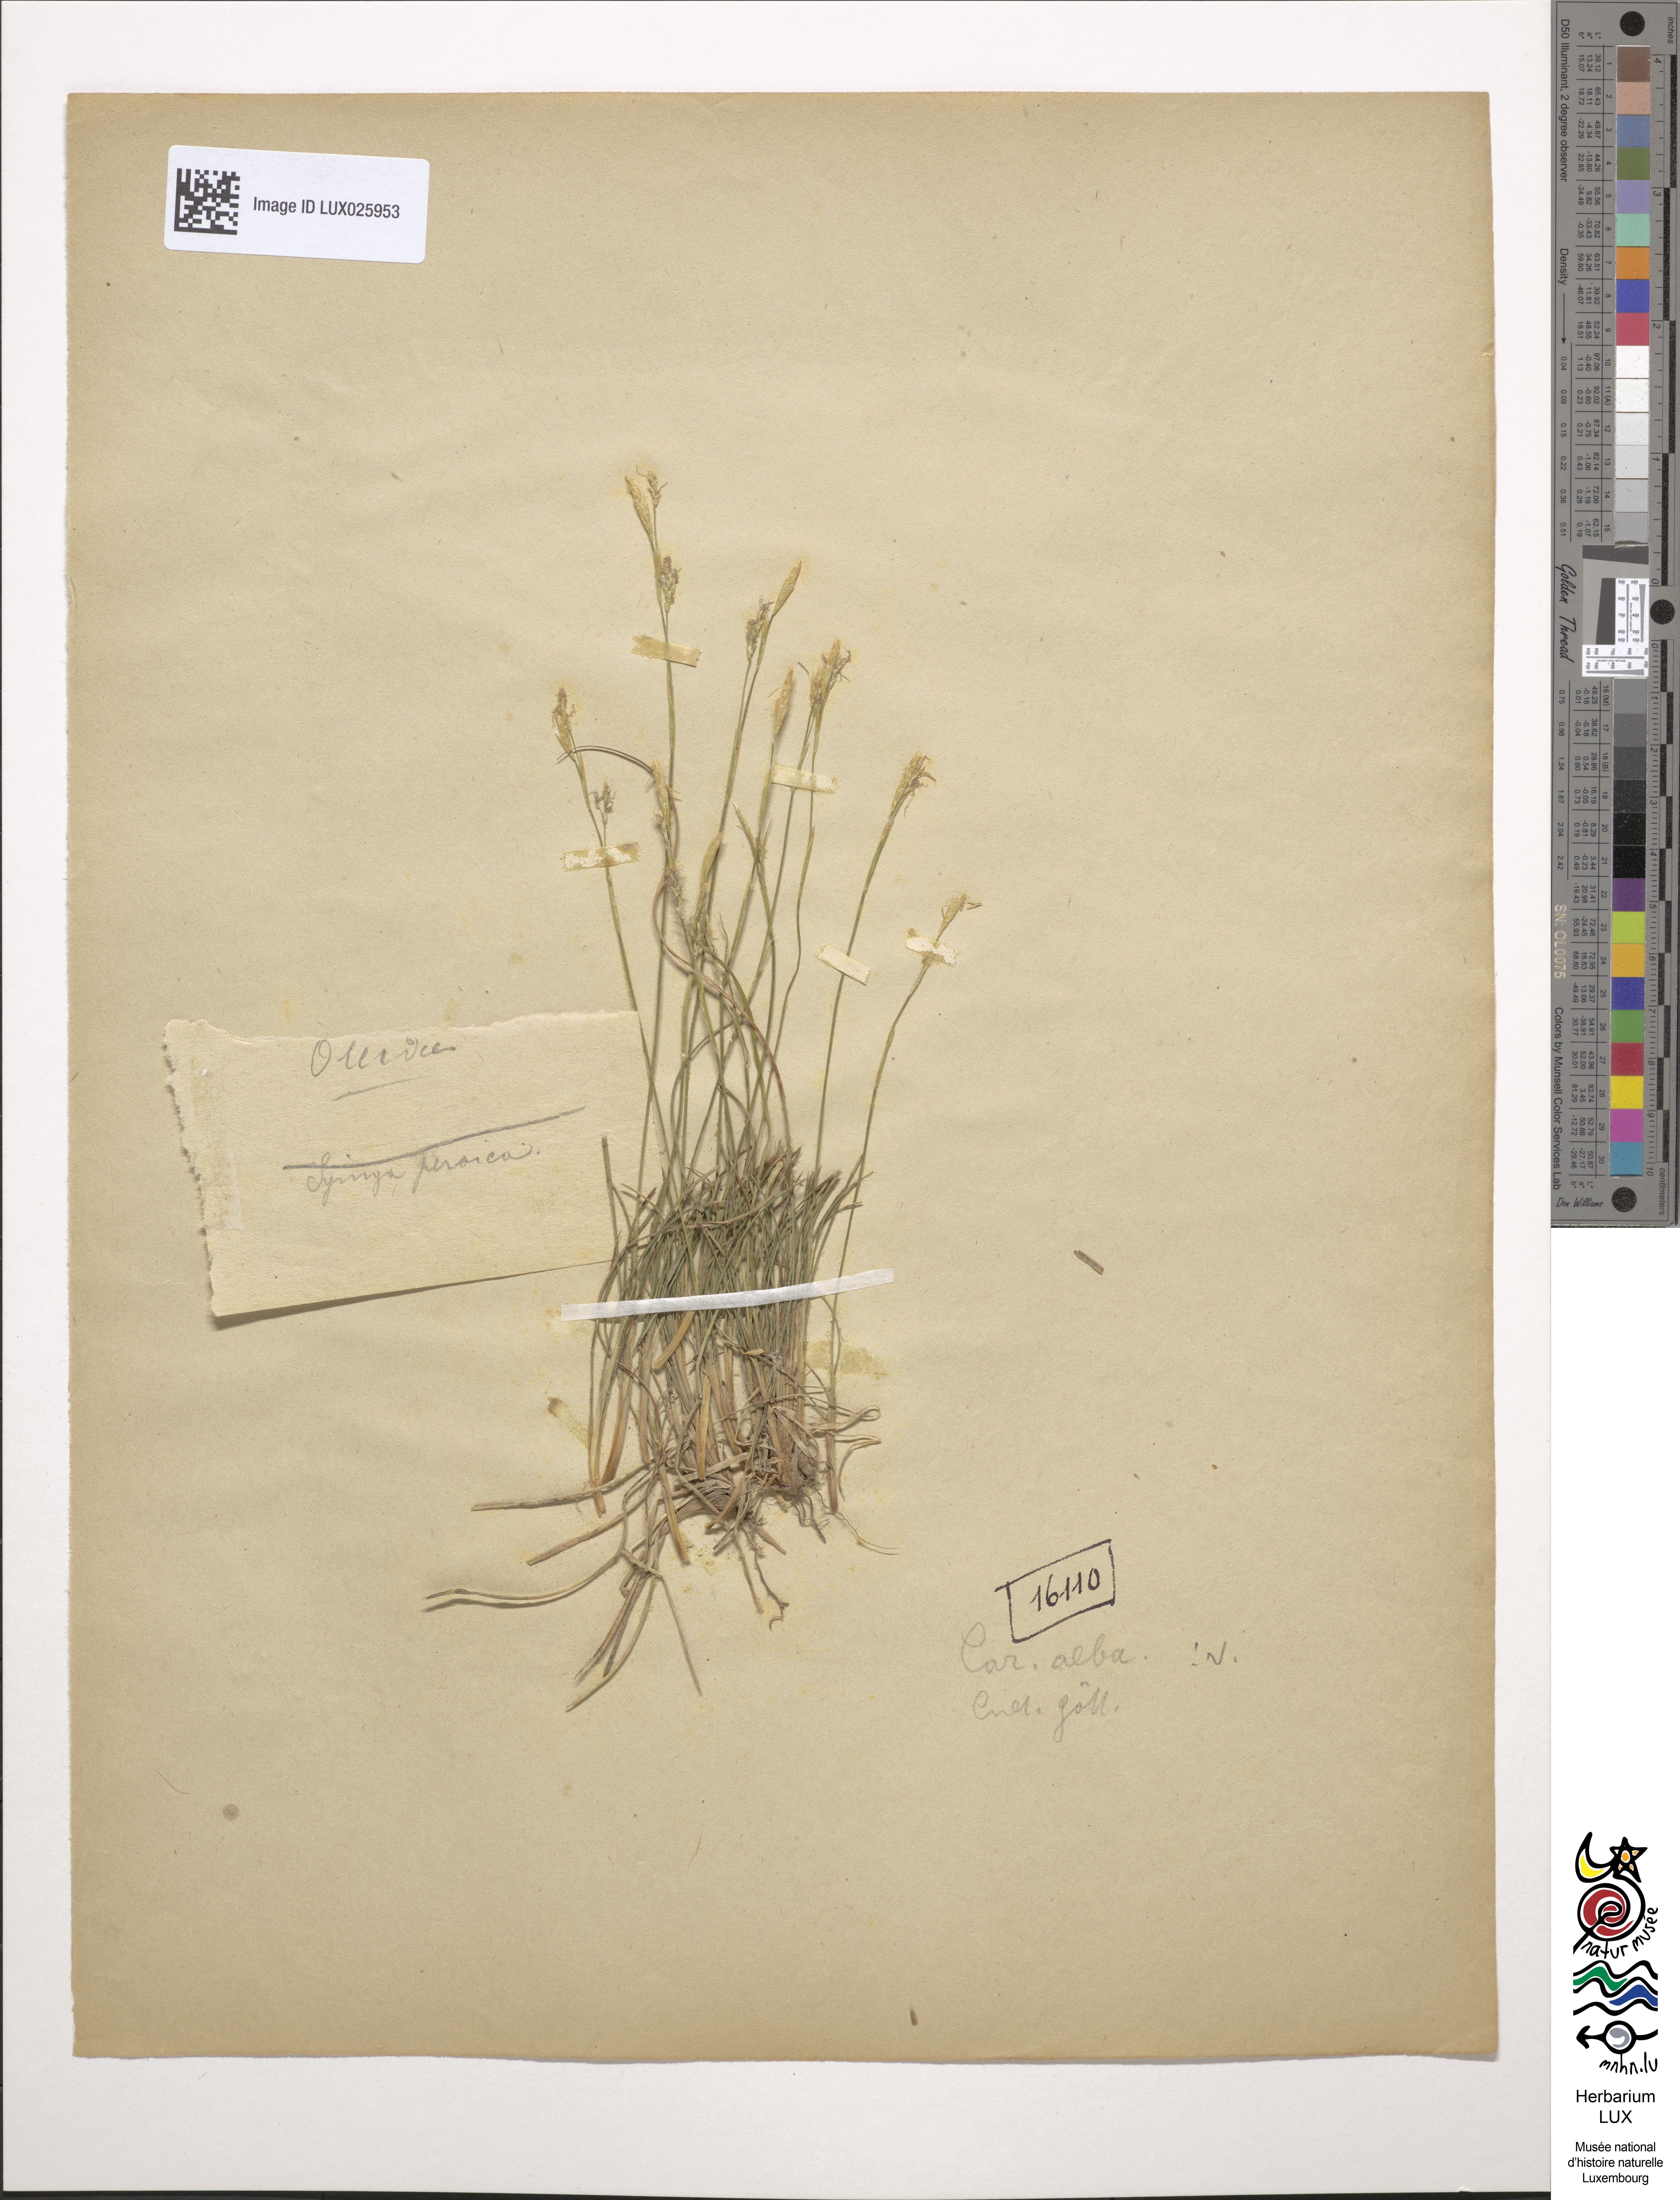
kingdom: Plantae
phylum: Tracheophyta
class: Liliopsida
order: Poales
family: Cyperaceae
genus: Carex
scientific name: Carex alba
